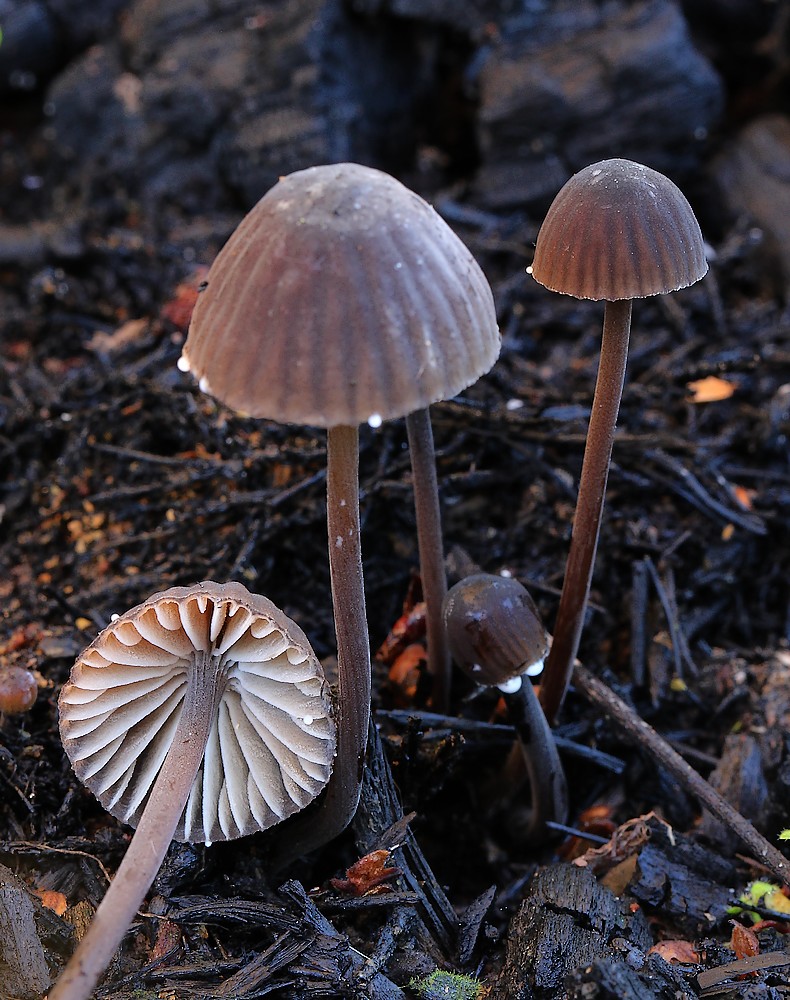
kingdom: Fungi
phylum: Basidiomycota
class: Agaricomycetes
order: Agaricales
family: Mycenaceae
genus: Mycena
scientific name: Mycena galopus
